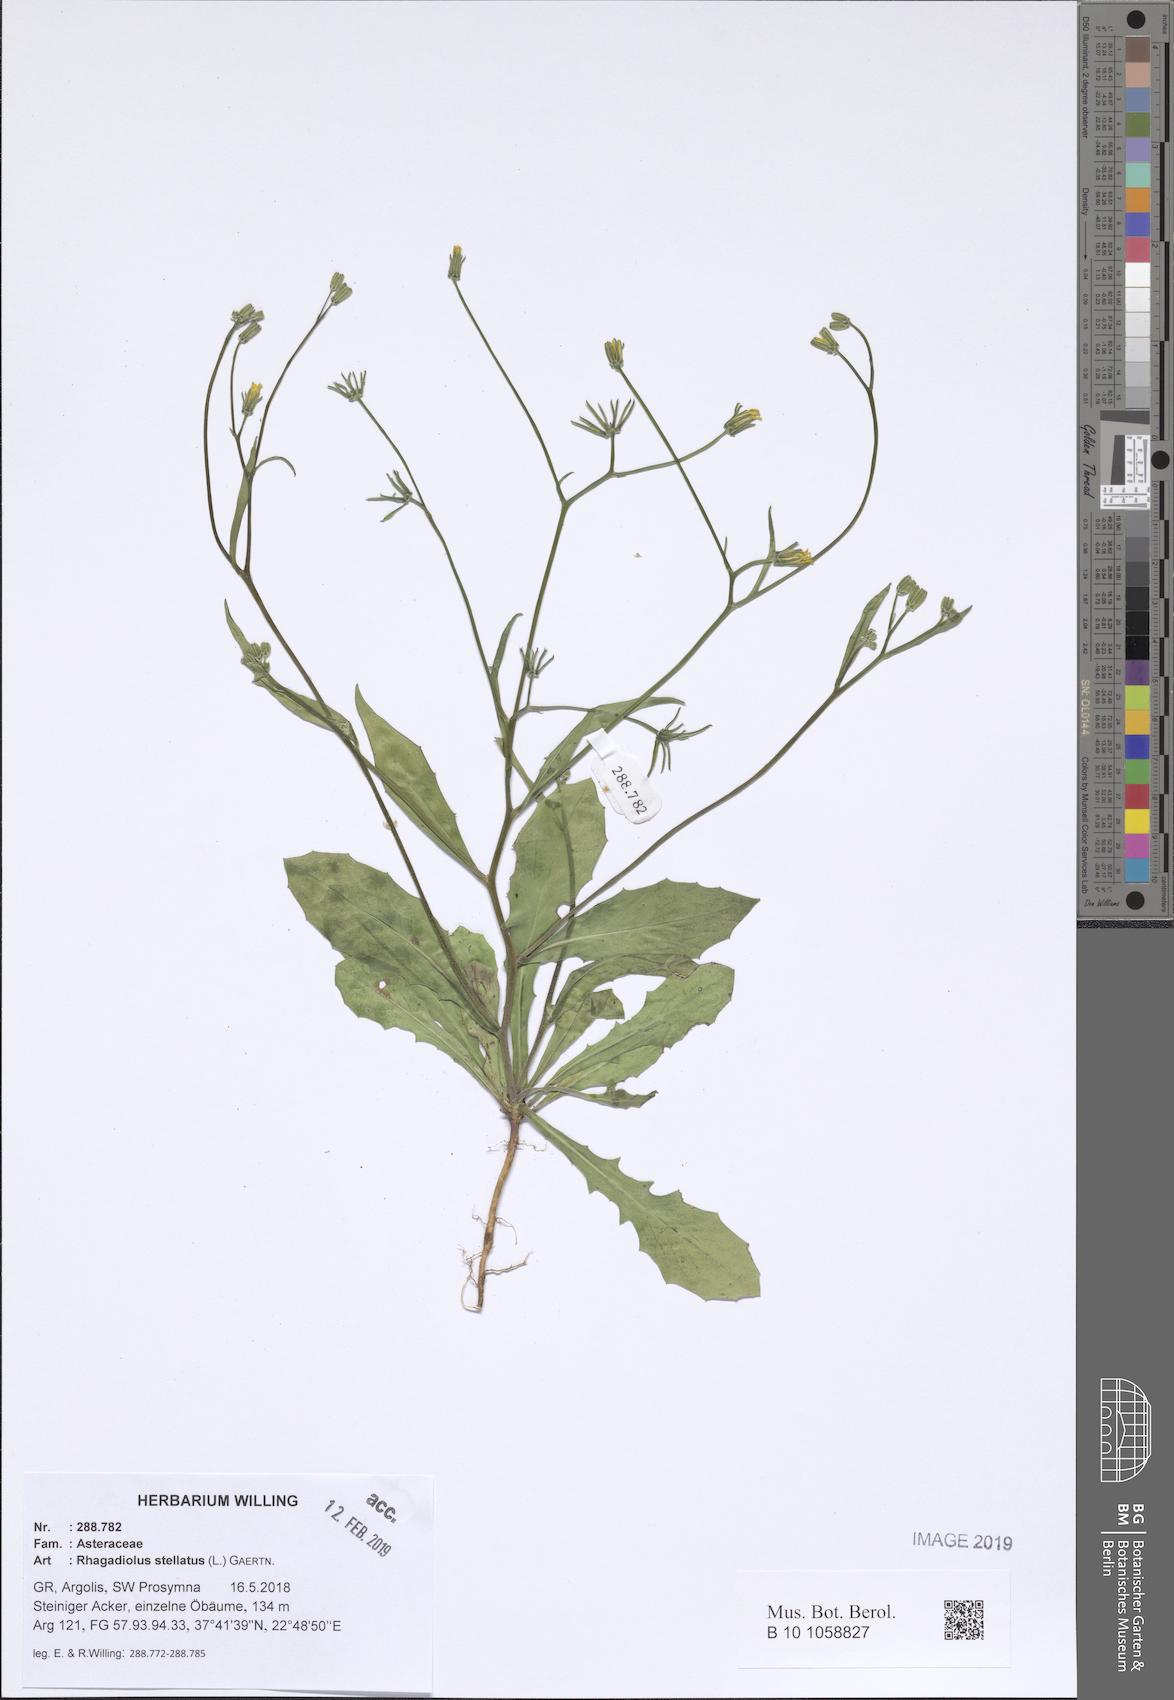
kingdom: Plantae
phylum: Tracheophyta
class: Magnoliopsida
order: Asterales
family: Asteraceae
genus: Rhagadiolus
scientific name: Rhagadiolus stellatus
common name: Star hawkbit
